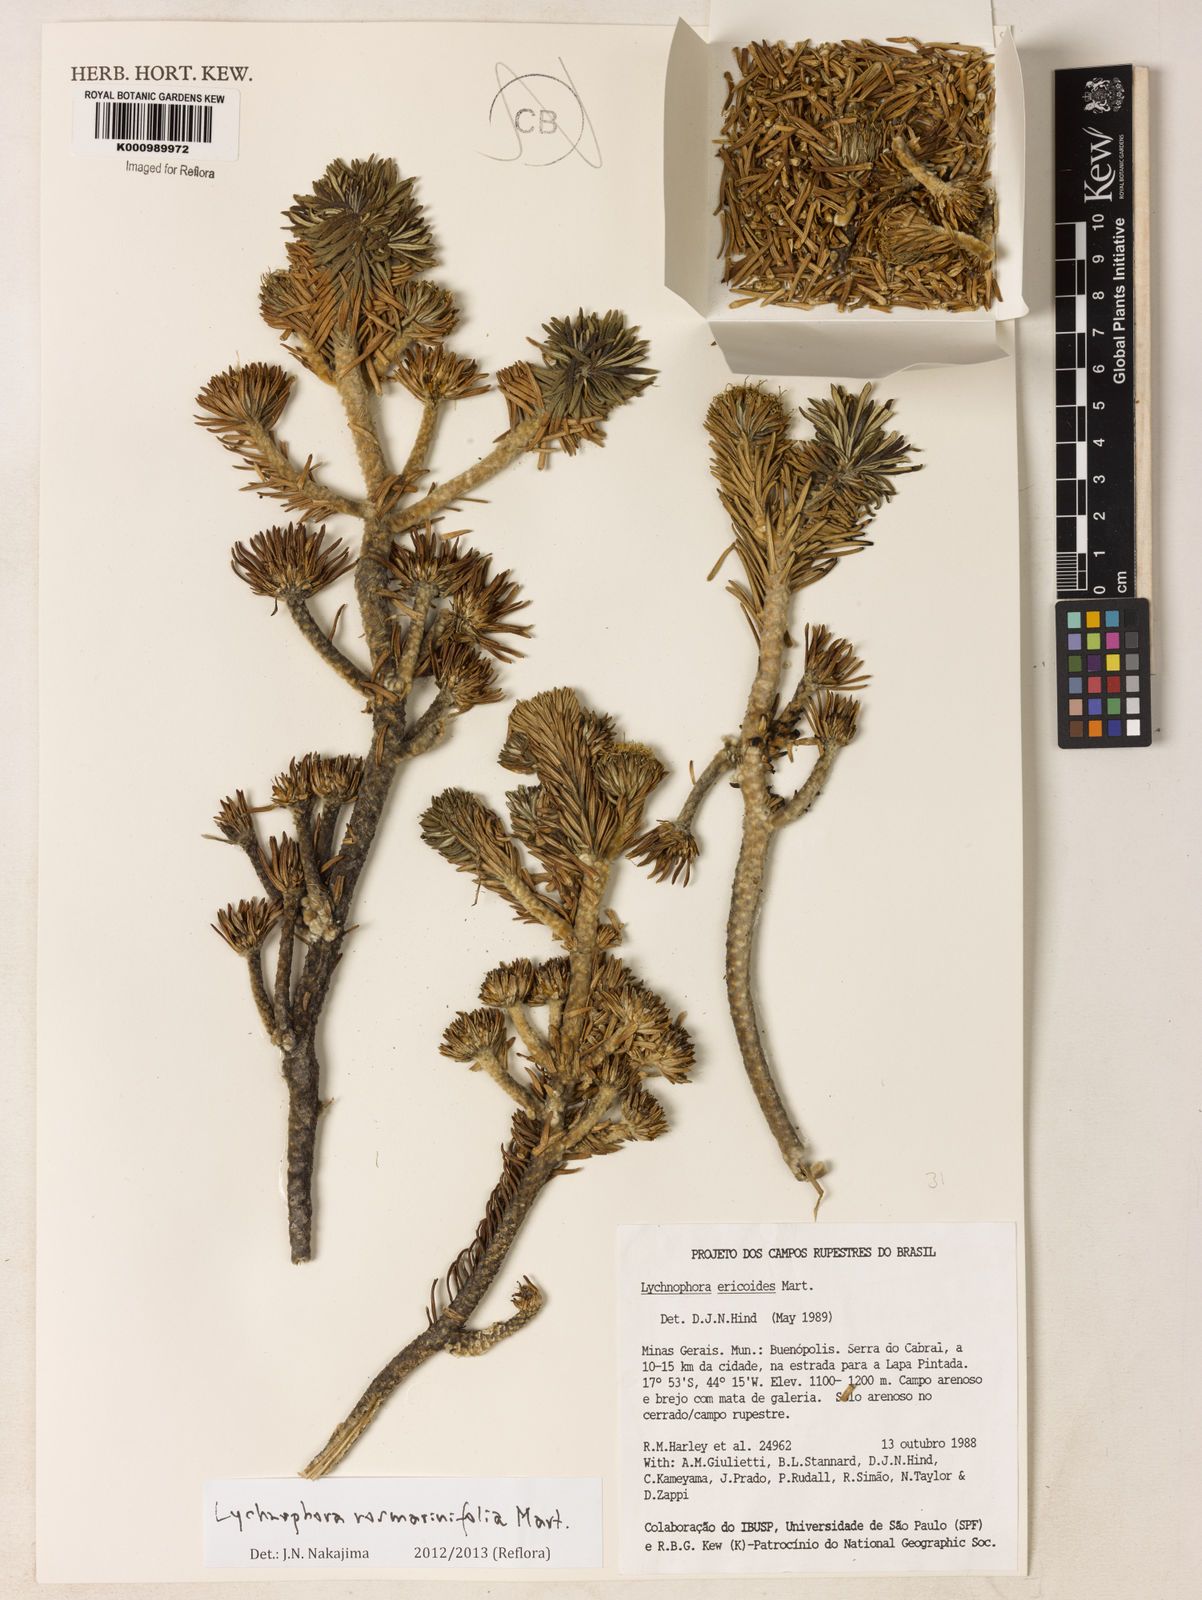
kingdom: Plantae
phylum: Tracheophyta
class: Magnoliopsida
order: Asterales
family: Asteraceae
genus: Lychnophora
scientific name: Lychnophora rosmarinifolia
